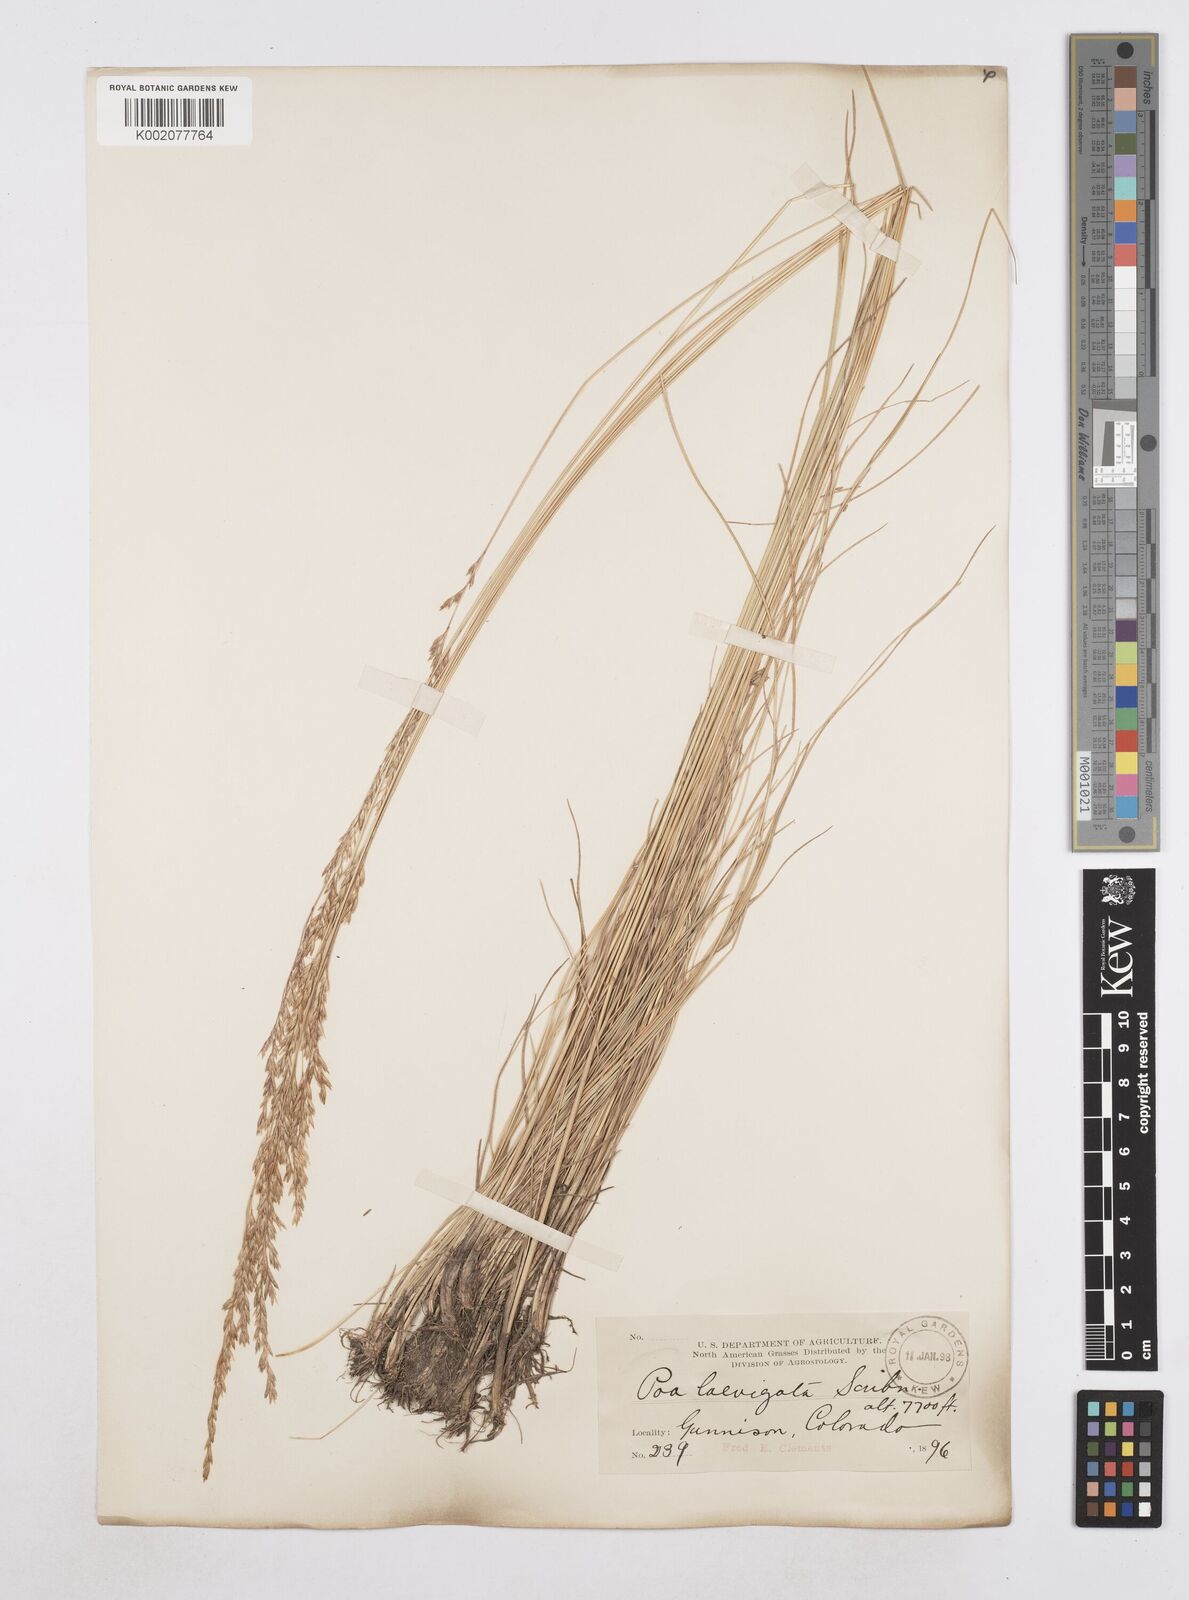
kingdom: Plantae
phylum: Tracheophyta
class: Liliopsida
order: Poales
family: Poaceae
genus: Poa
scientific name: Poa secunda
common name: Sandberg bluegrass
